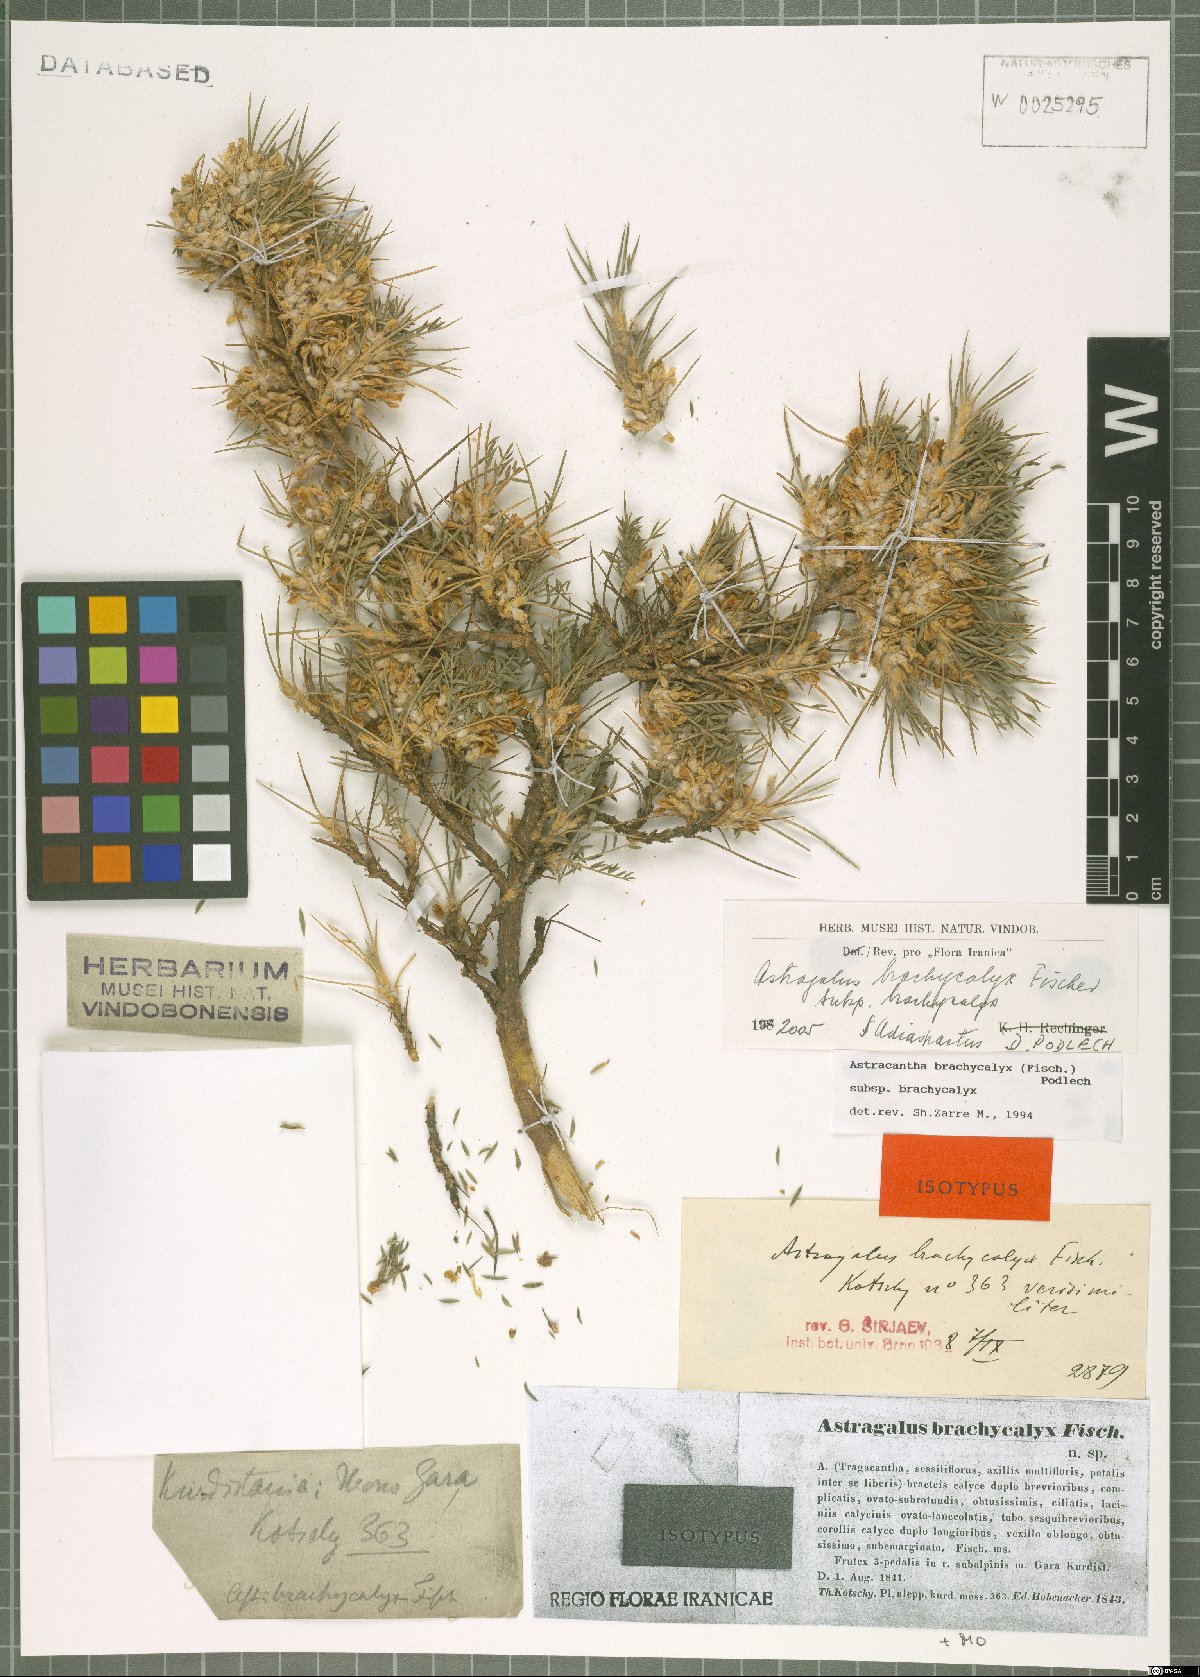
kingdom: Plantae
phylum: Tracheophyta
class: Magnoliopsida
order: Fabales
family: Fabaceae
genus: Astragalus
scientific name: Astragalus brachycalyx
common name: Persian manna
